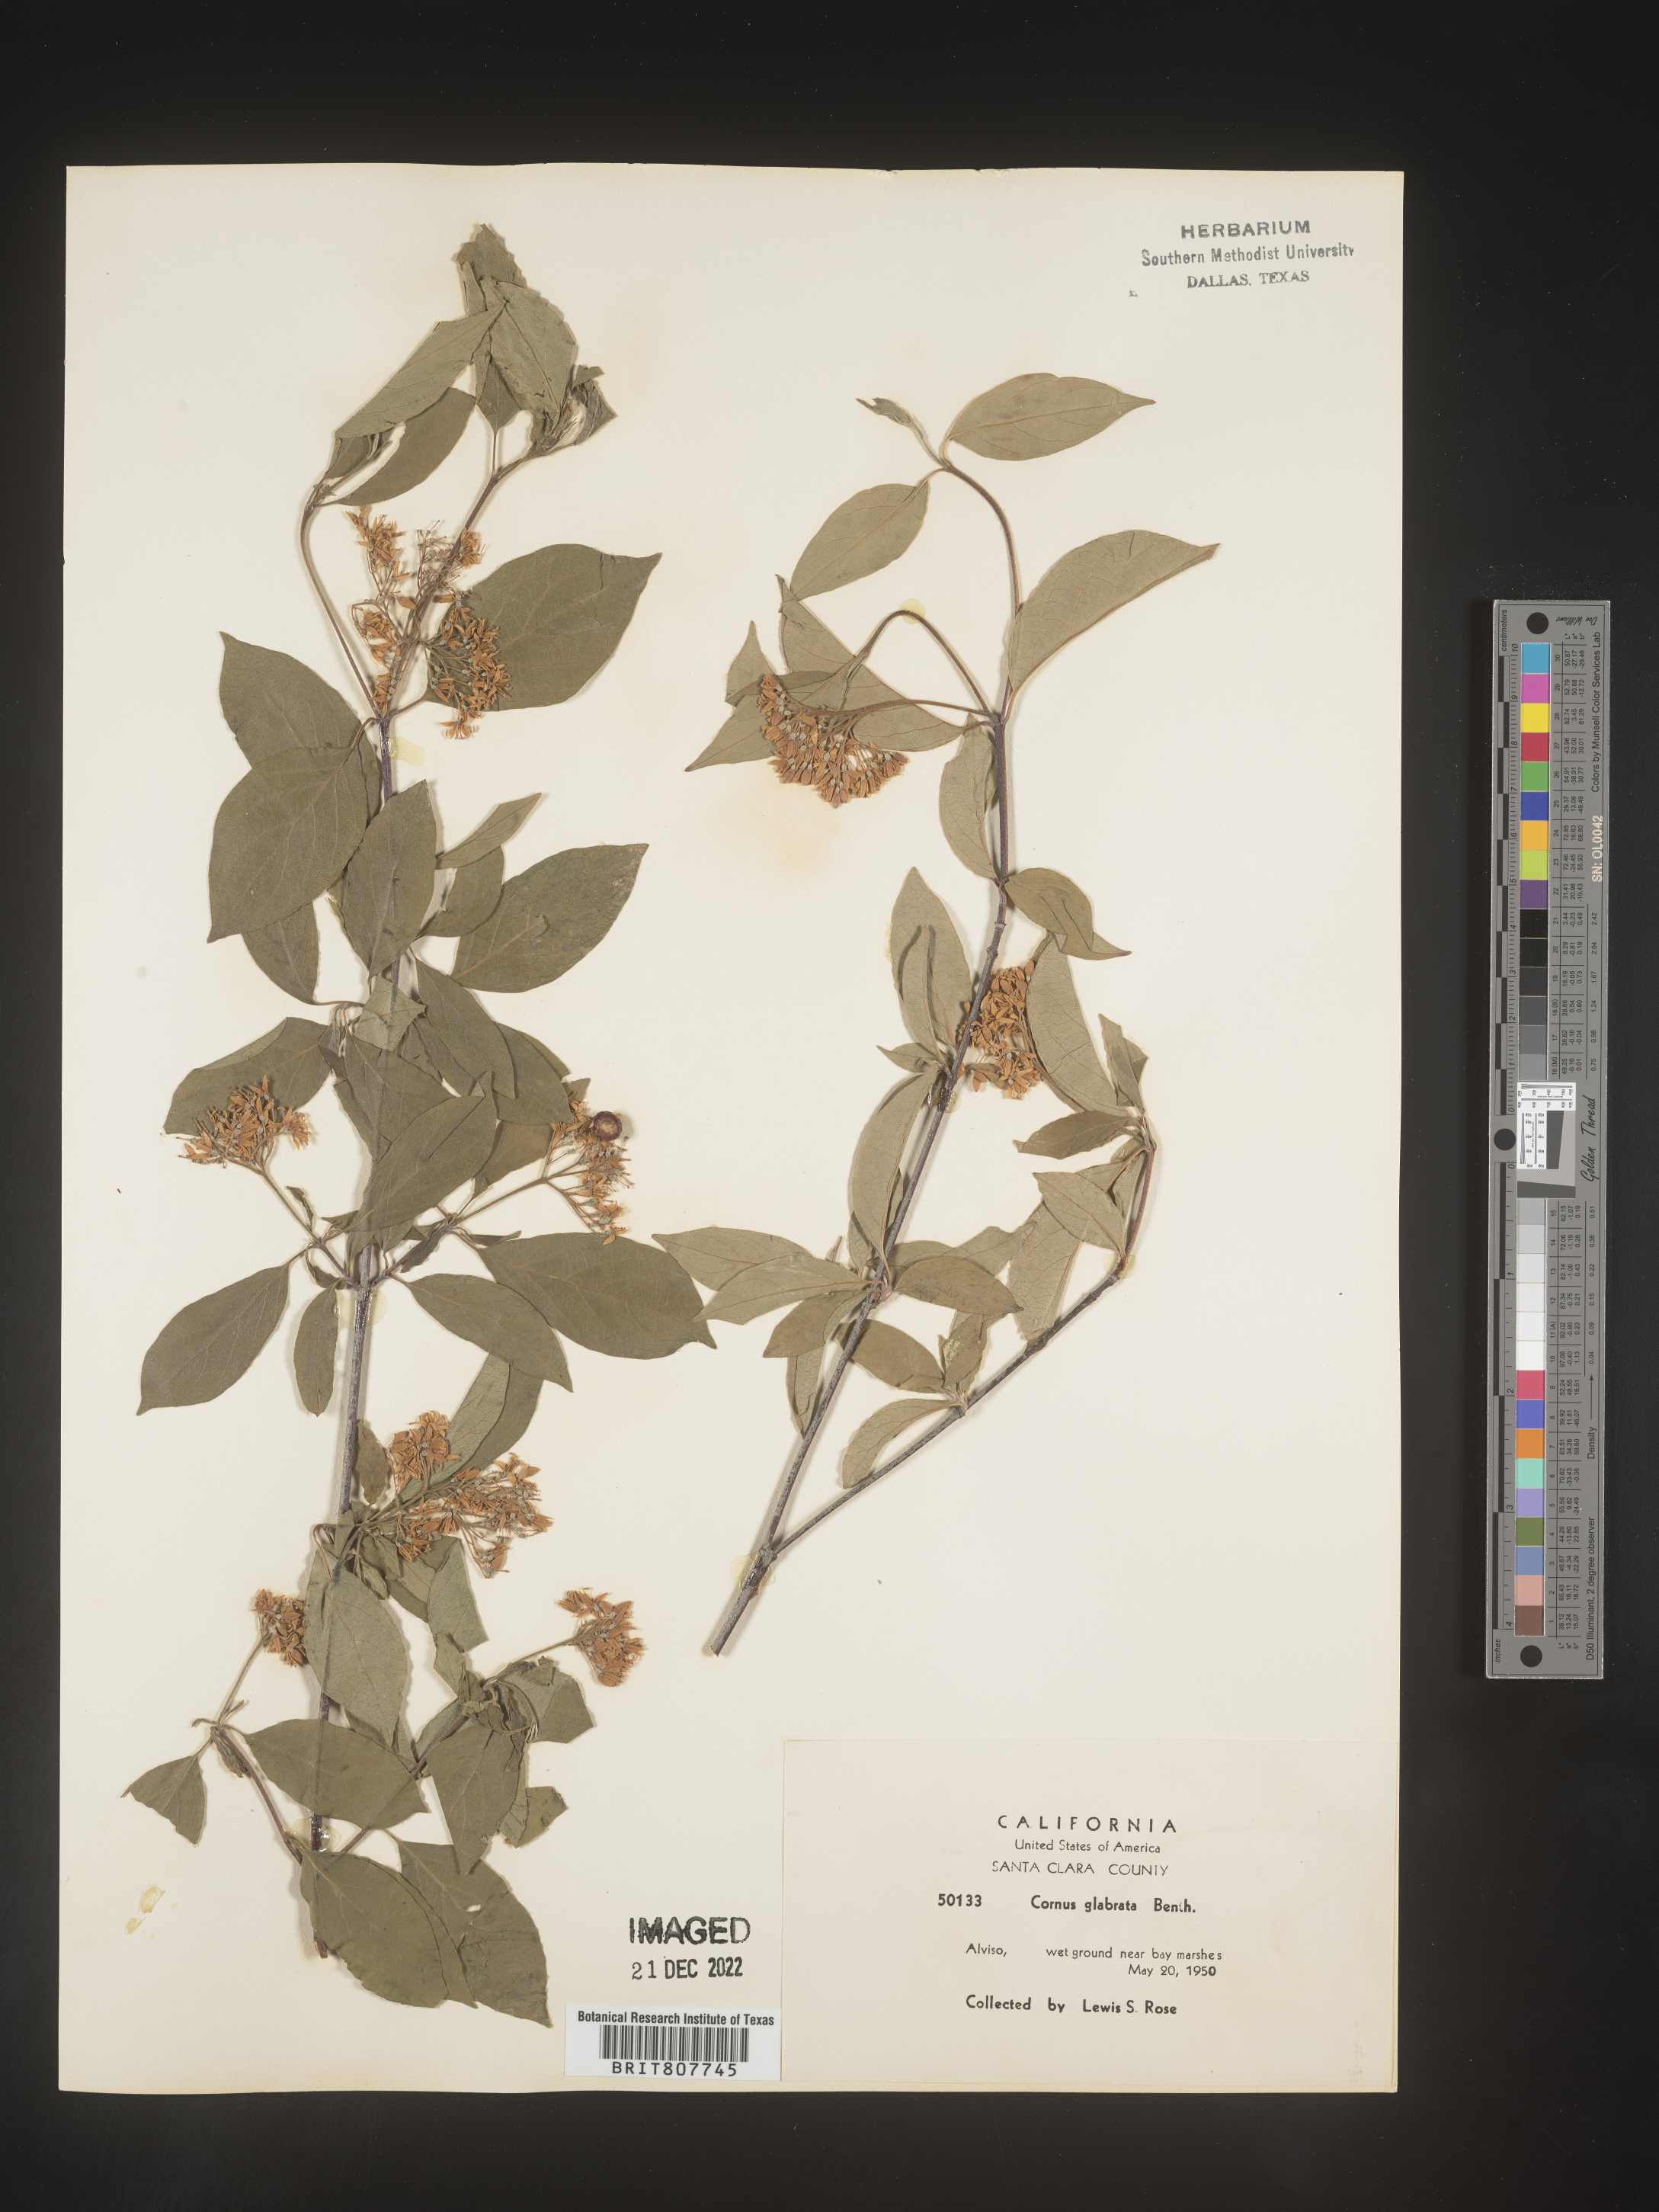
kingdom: Plantae
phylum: Tracheophyta
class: Magnoliopsida
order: Cornales
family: Cornaceae
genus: Cornus
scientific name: Cornus glabrata
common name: Smooth dogwood
